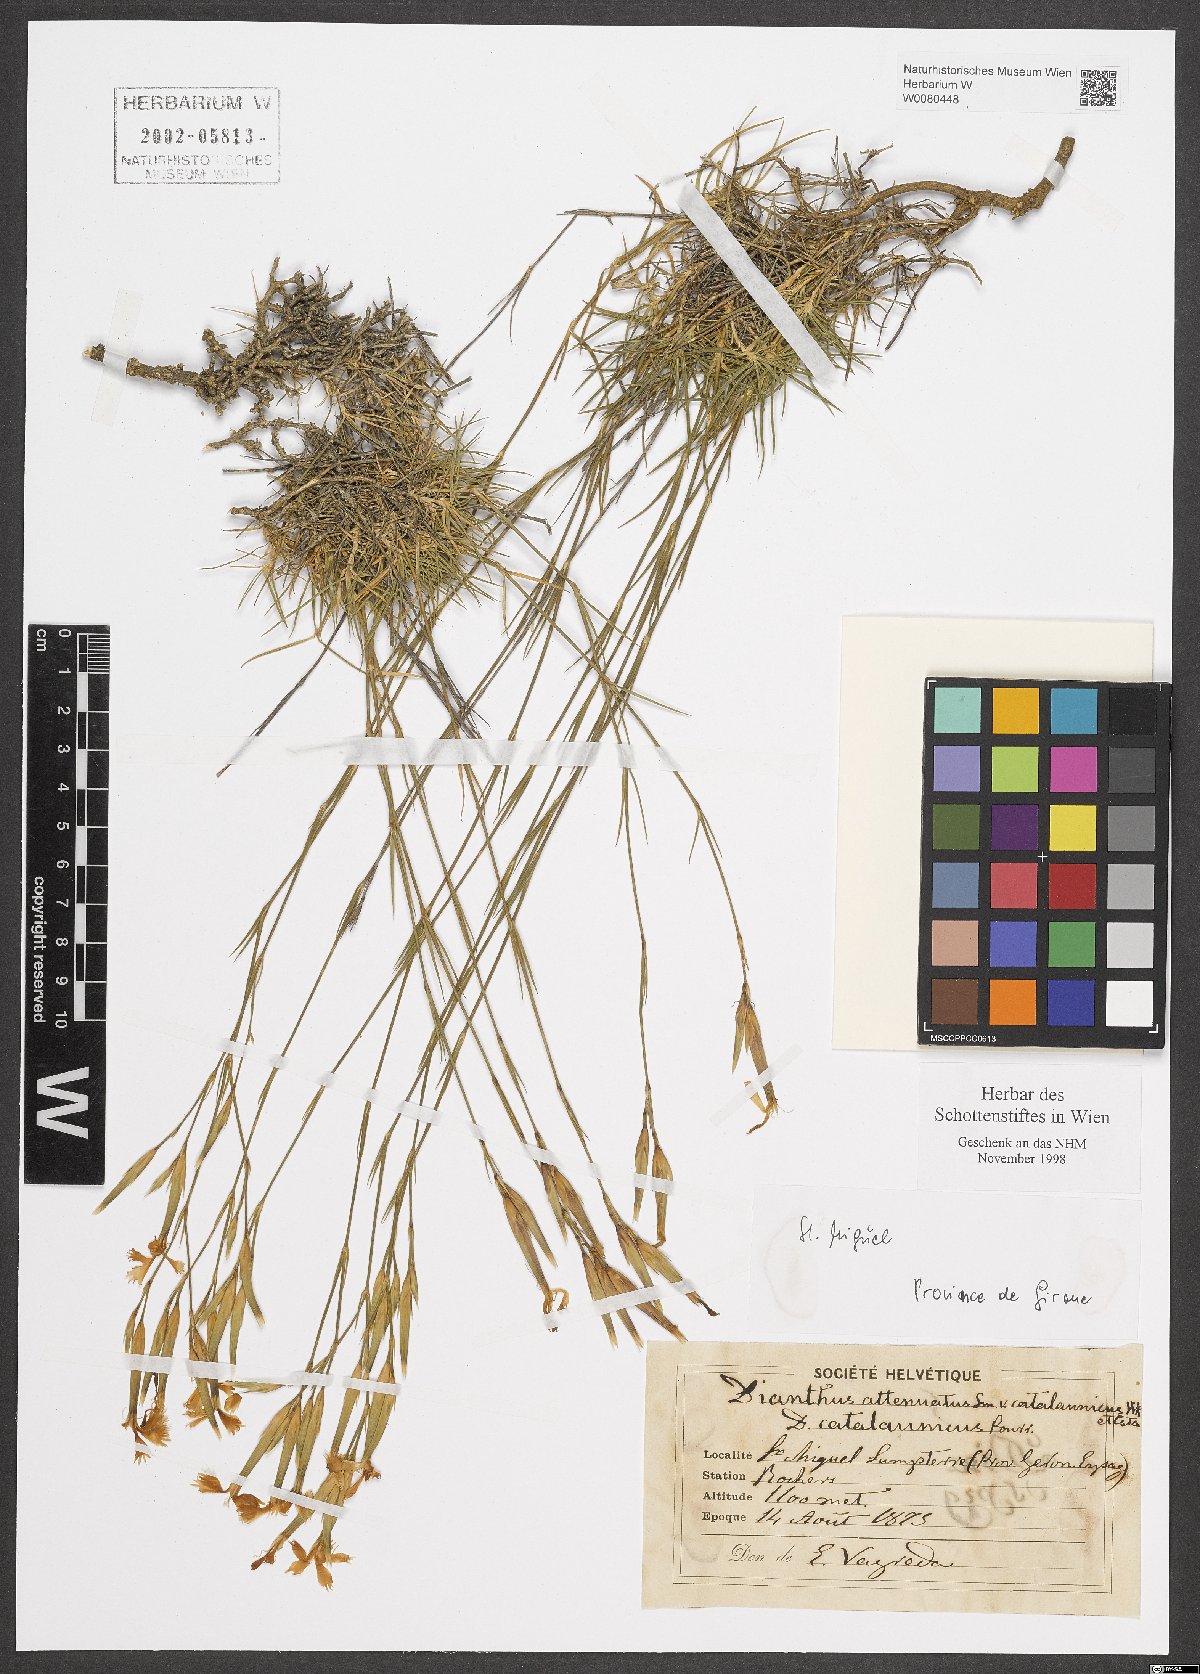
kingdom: Plantae
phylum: Tracheophyta
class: Magnoliopsida
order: Caryophyllales
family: Caryophyllaceae
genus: Dianthus
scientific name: Dianthus pyrenaicus
